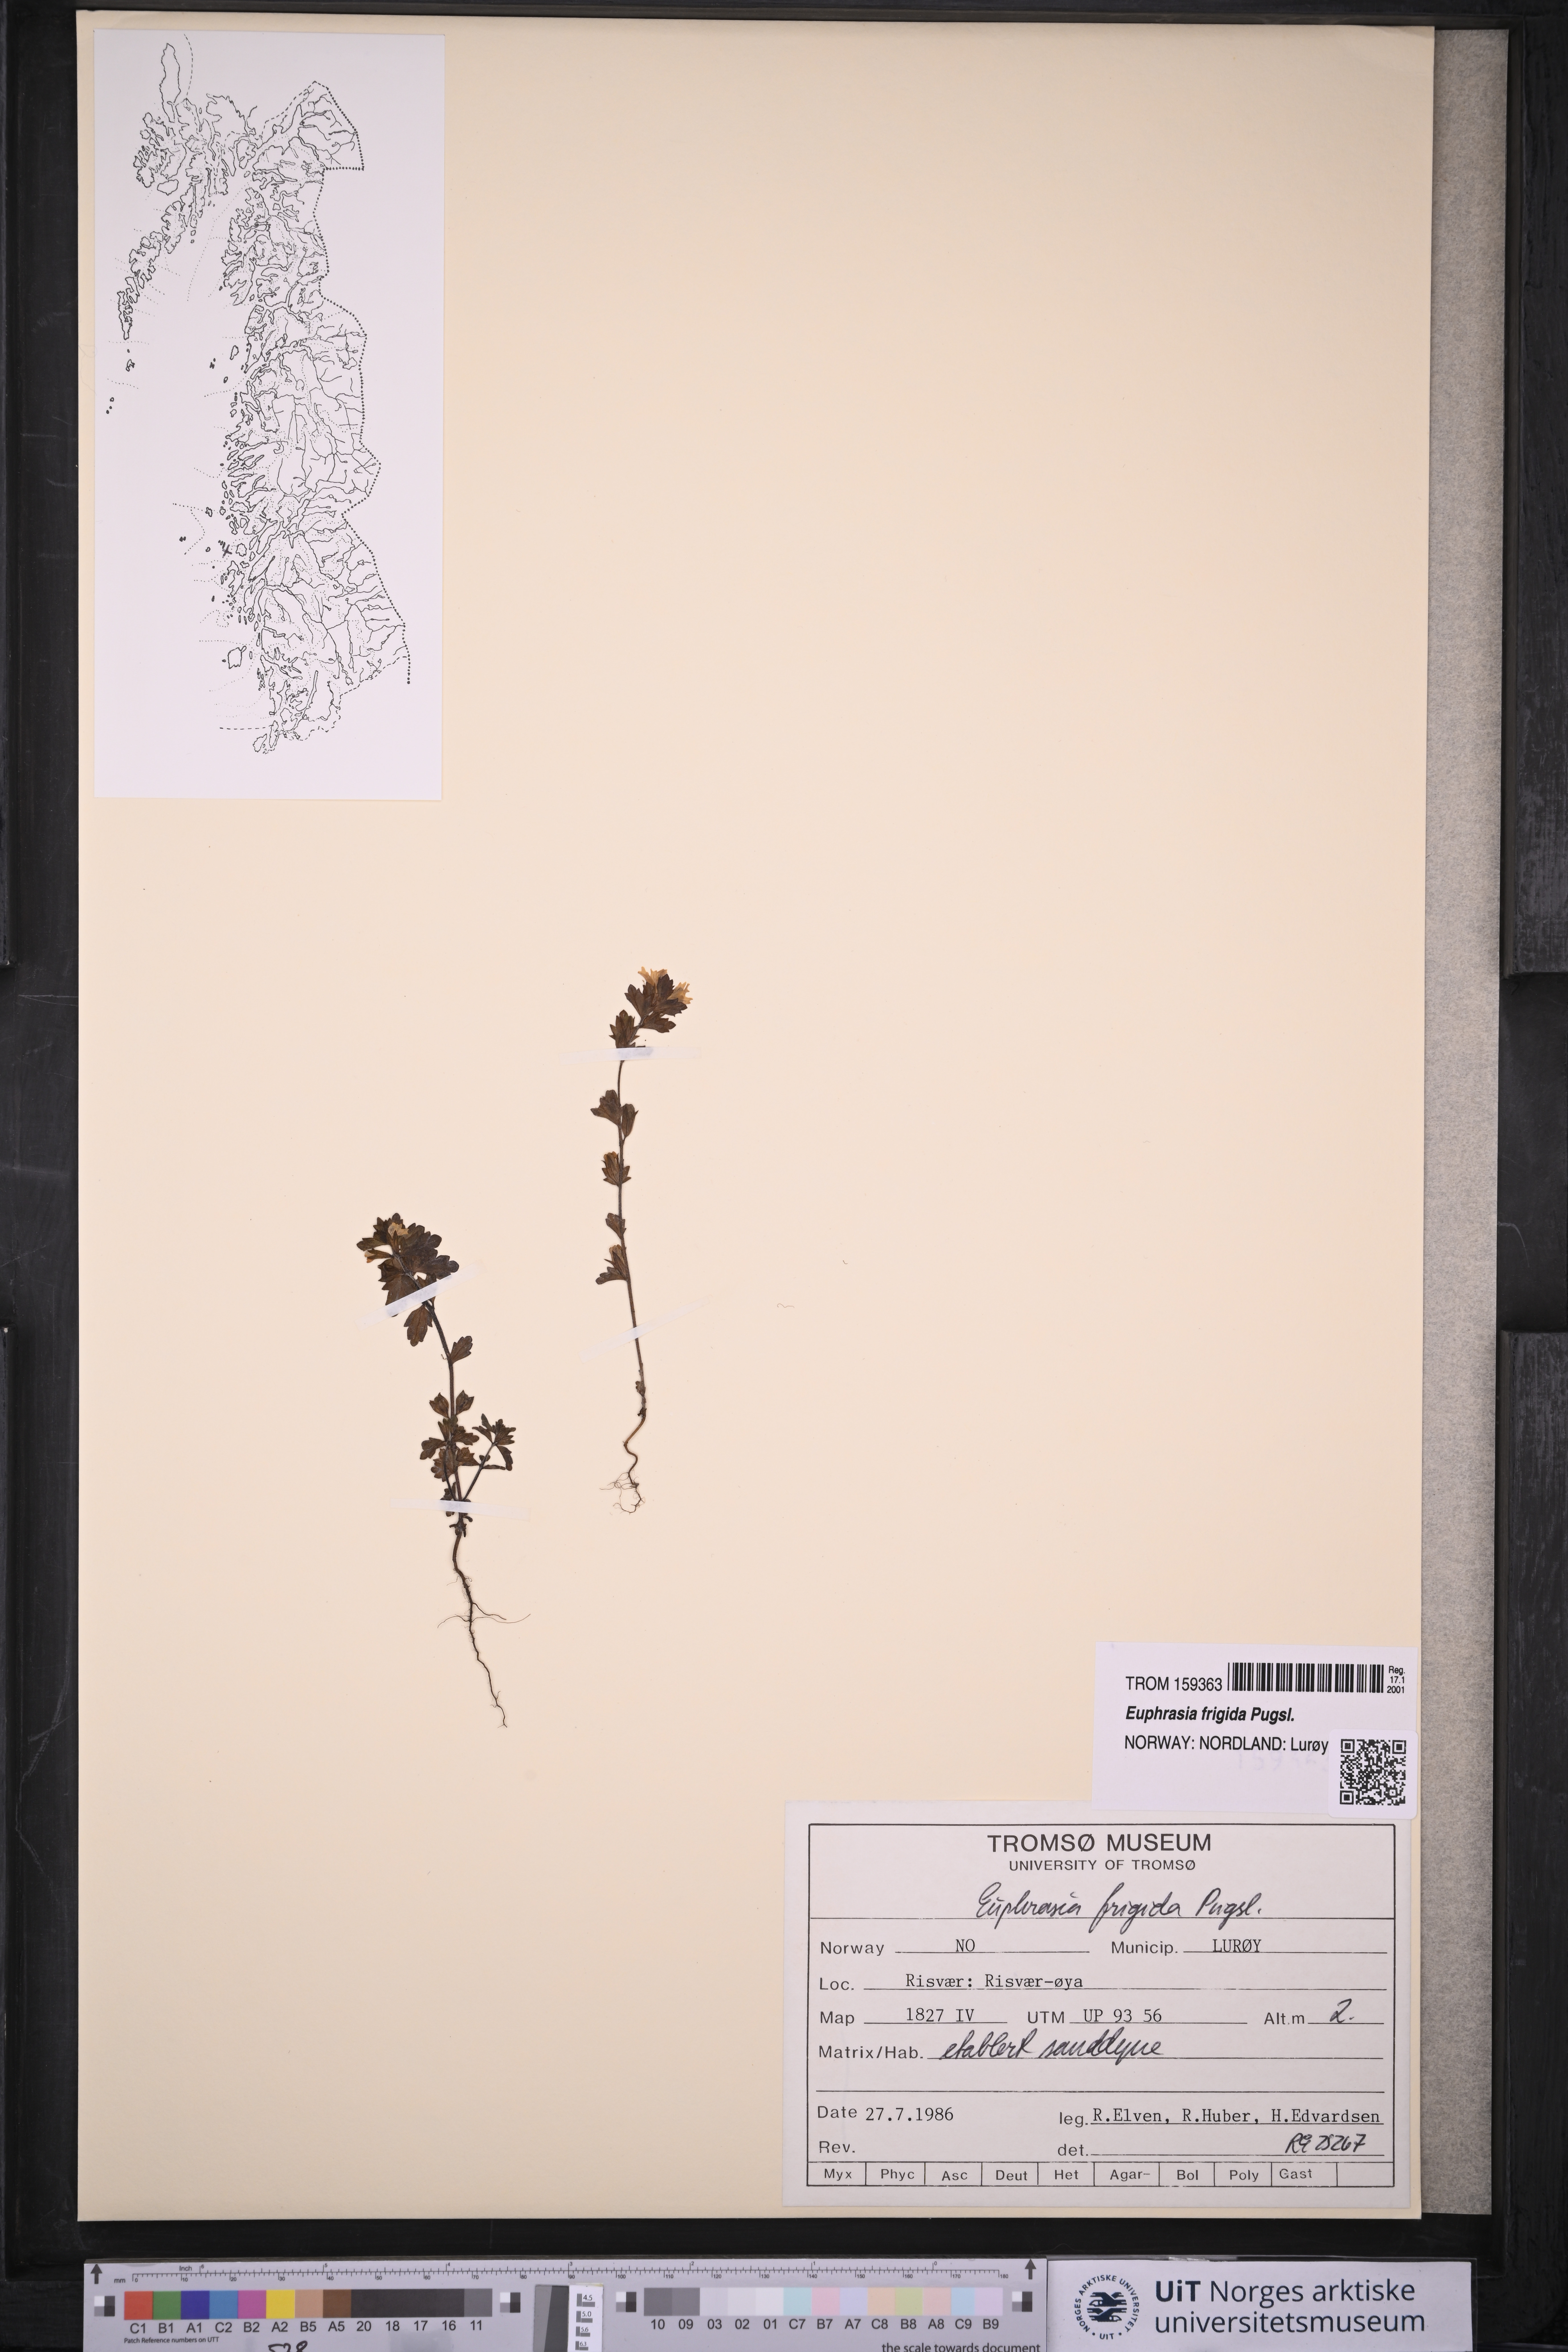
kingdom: Plantae
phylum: Tracheophyta
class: Magnoliopsida
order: Lamiales
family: Orobanchaceae
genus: Euphrasia
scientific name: Euphrasia frigida
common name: An eyebright
